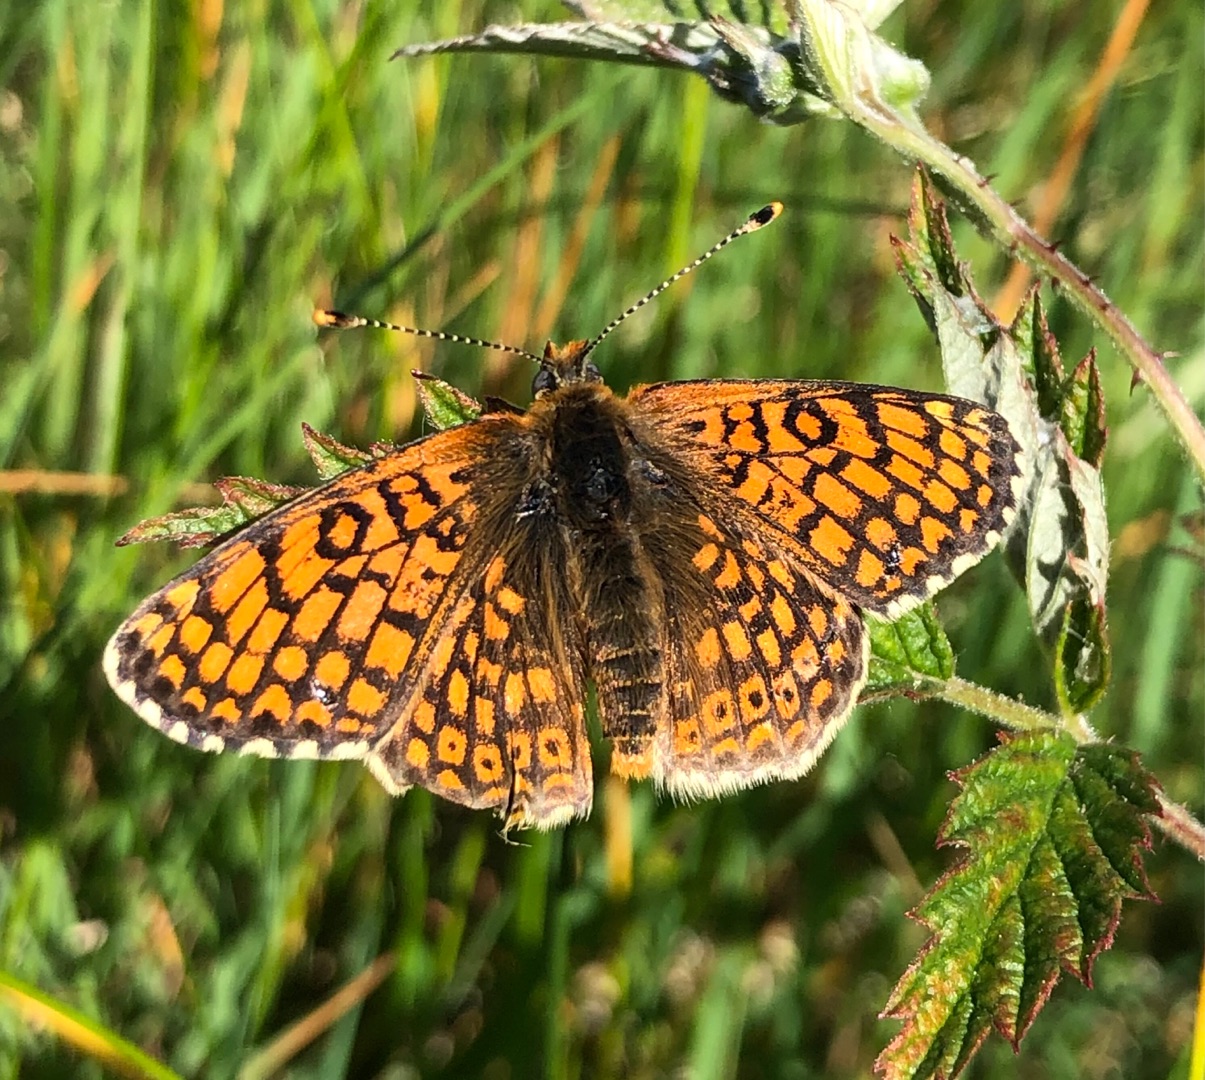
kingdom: Animalia
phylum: Arthropoda
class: Insecta
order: Lepidoptera
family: Nymphalidae
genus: Melitaea
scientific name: Melitaea cinxia
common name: Okkergul pletvinge
